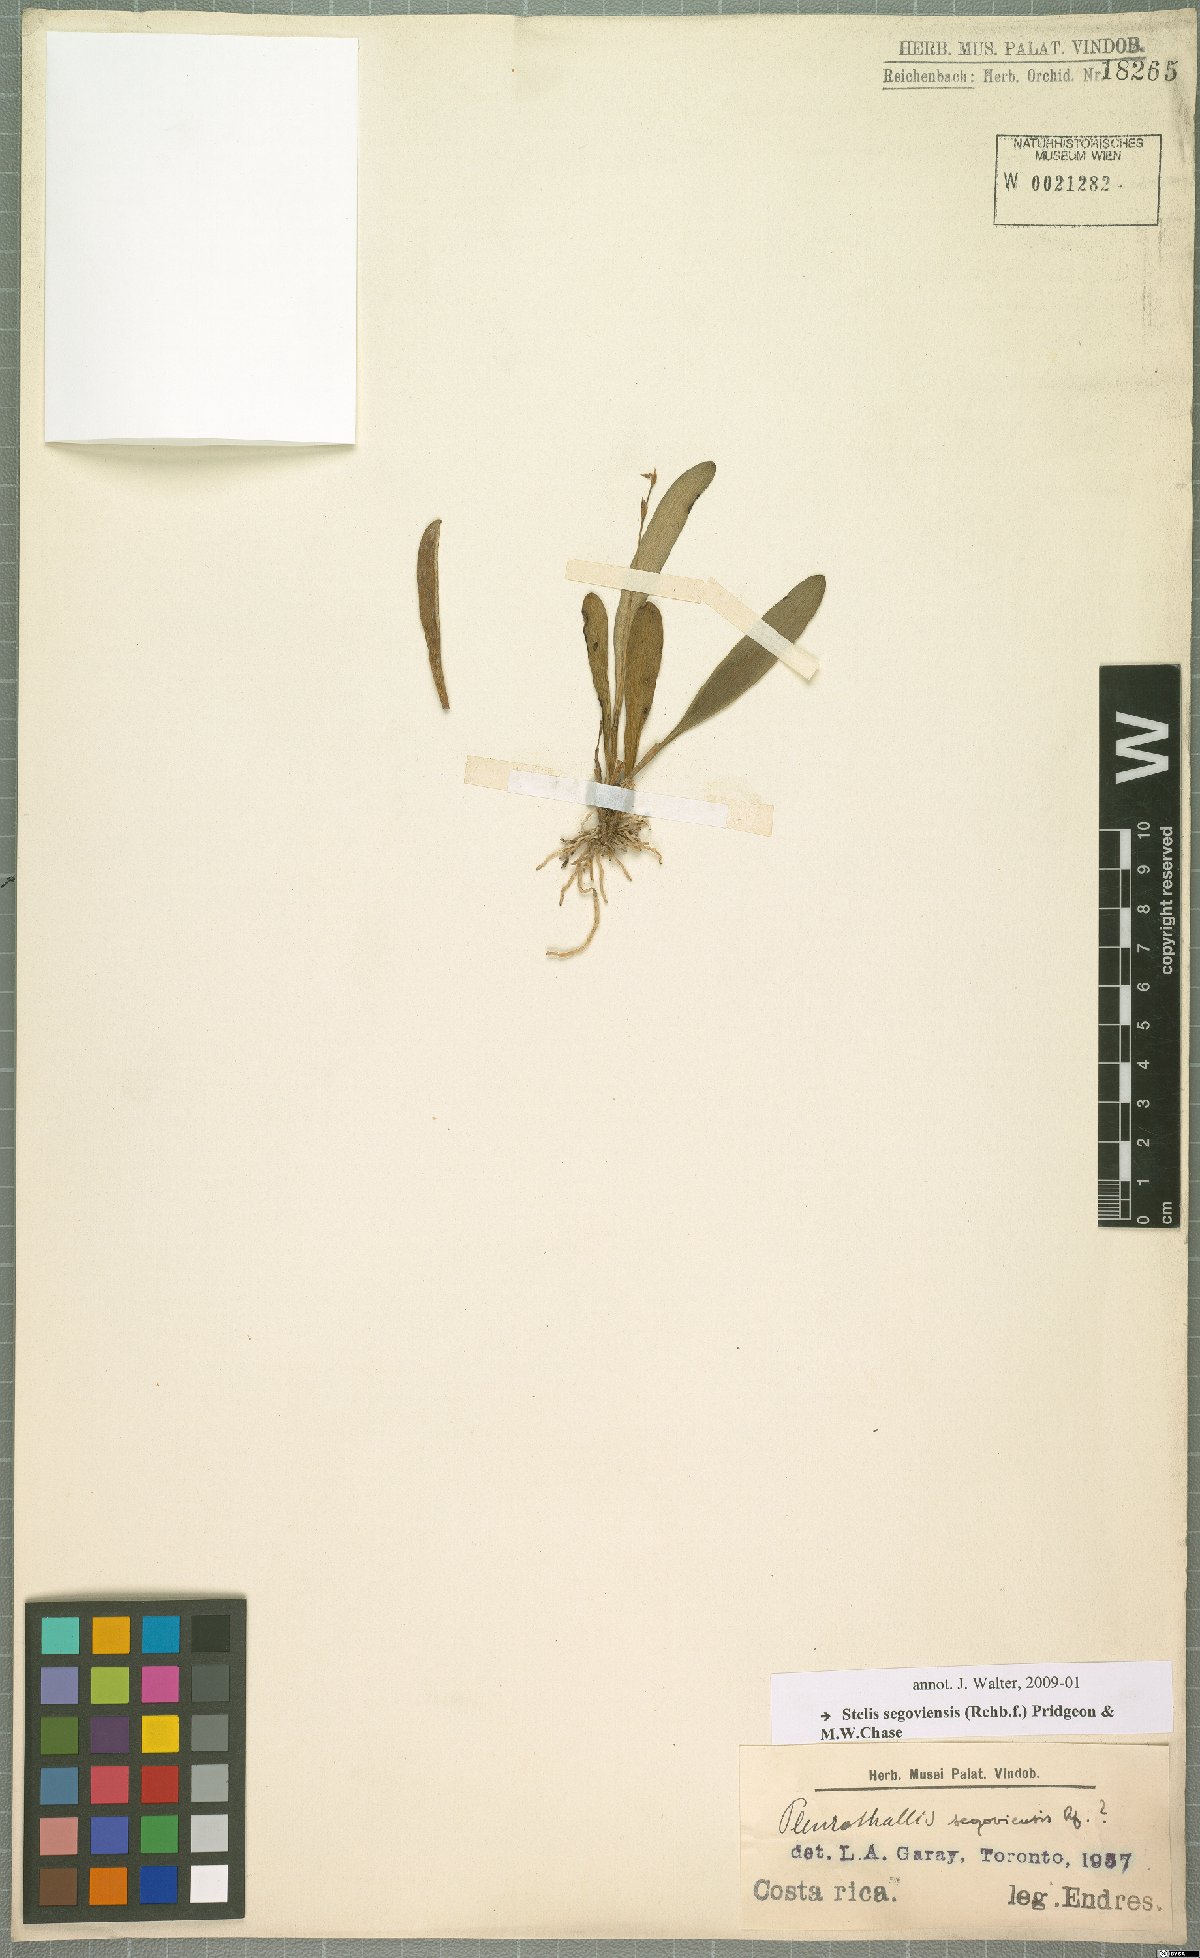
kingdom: Plantae
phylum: Tracheophyta
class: Liliopsida
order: Asparagales
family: Orchidaceae
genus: Stelis
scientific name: Stelis segoviensis
